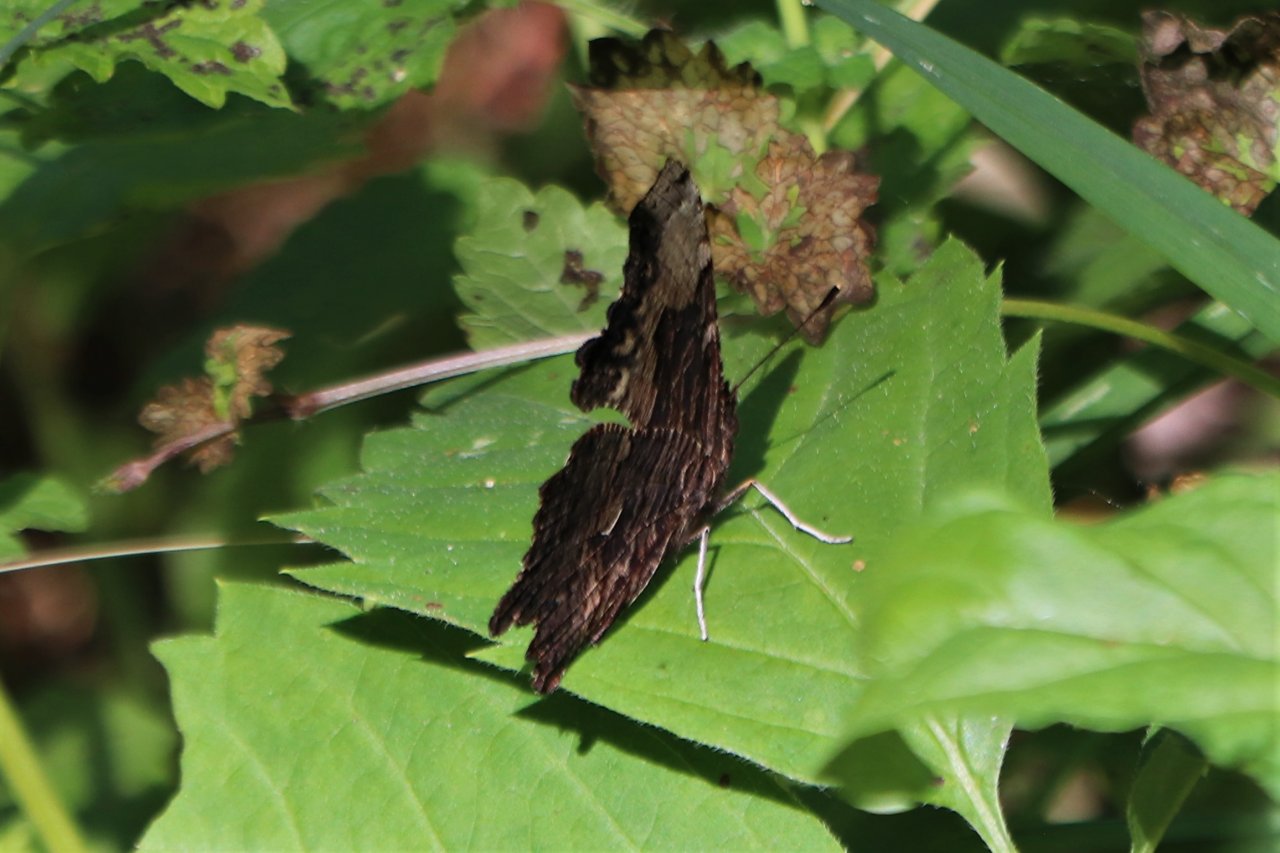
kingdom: Animalia
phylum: Arthropoda
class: Insecta
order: Lepidoptera
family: Nymphalidae
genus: Polygonia
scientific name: Polygonia progne
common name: Gray Comma
